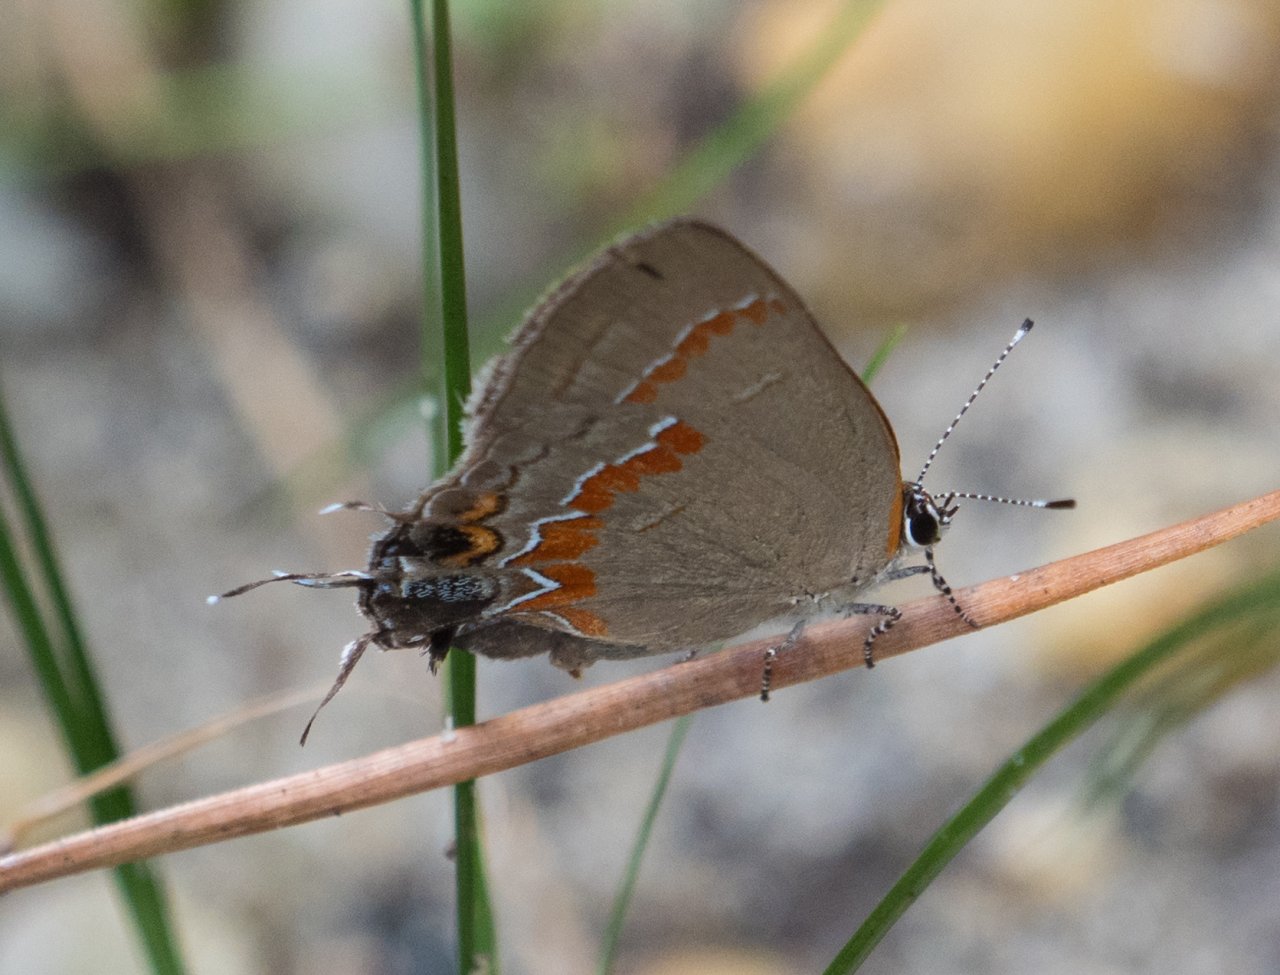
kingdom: Animalia
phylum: Arthropoda
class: Insecta
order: Lepidoptera
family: Lycaenidae
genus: Calycopis
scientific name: Calycopis cecrops
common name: Red-banded Hairstreak
